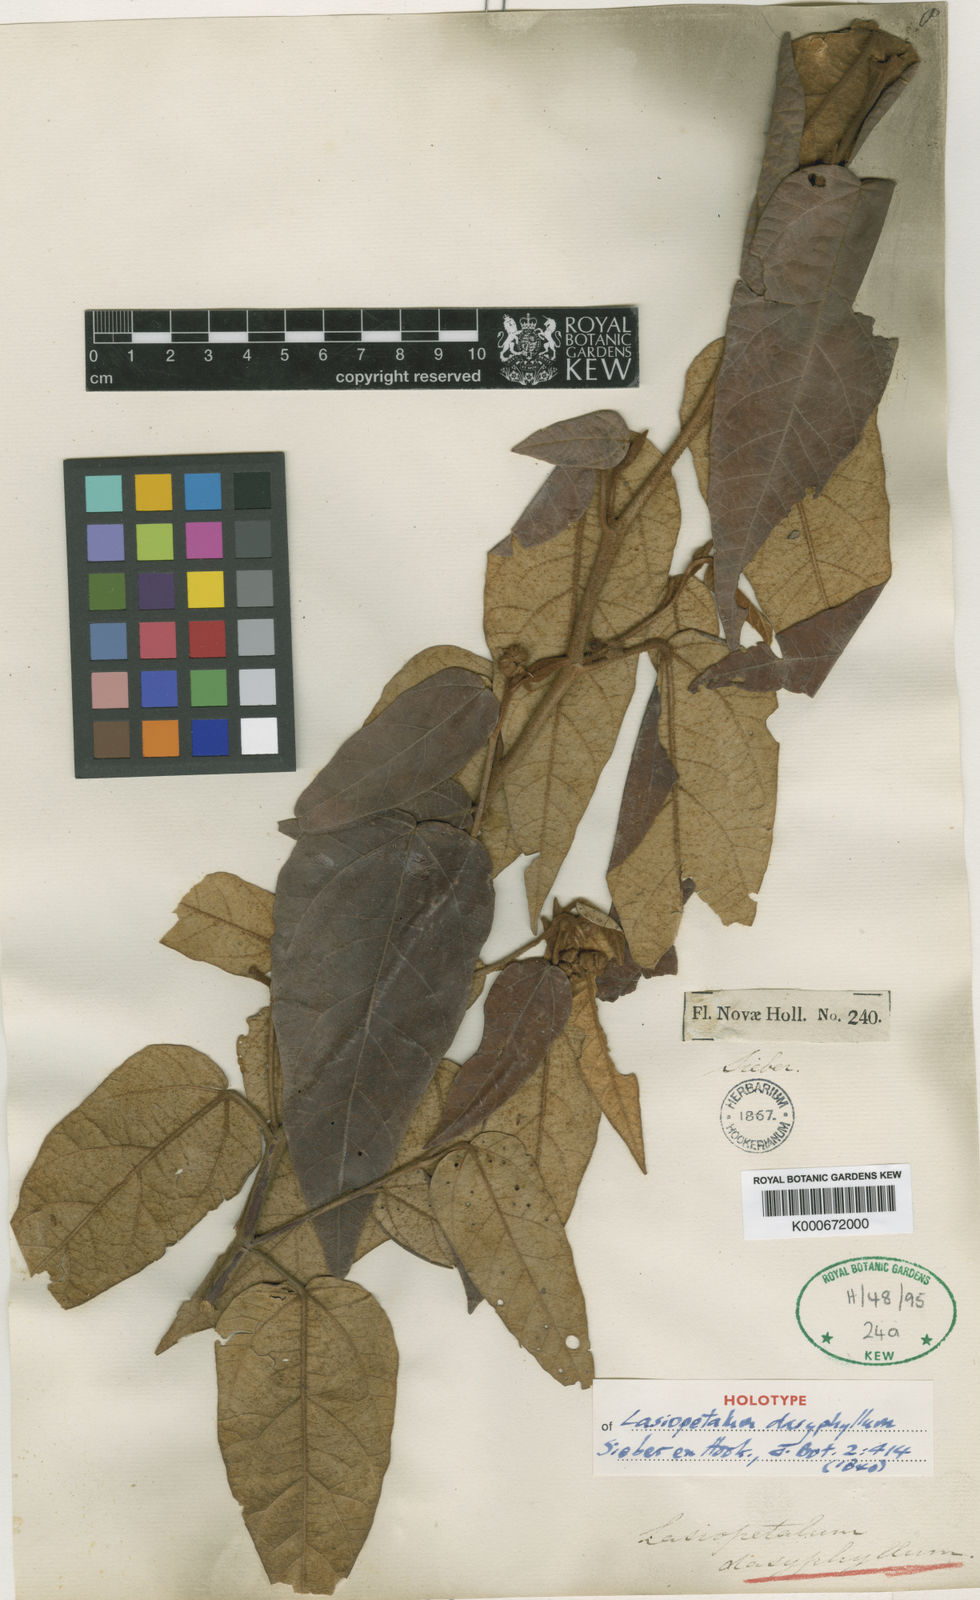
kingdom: Plantae
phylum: Tracheophyta
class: Magnoliopsida
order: Malvales
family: Malvaceae
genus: Lasiopetalum
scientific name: Lasiopetalum macrophyllum
